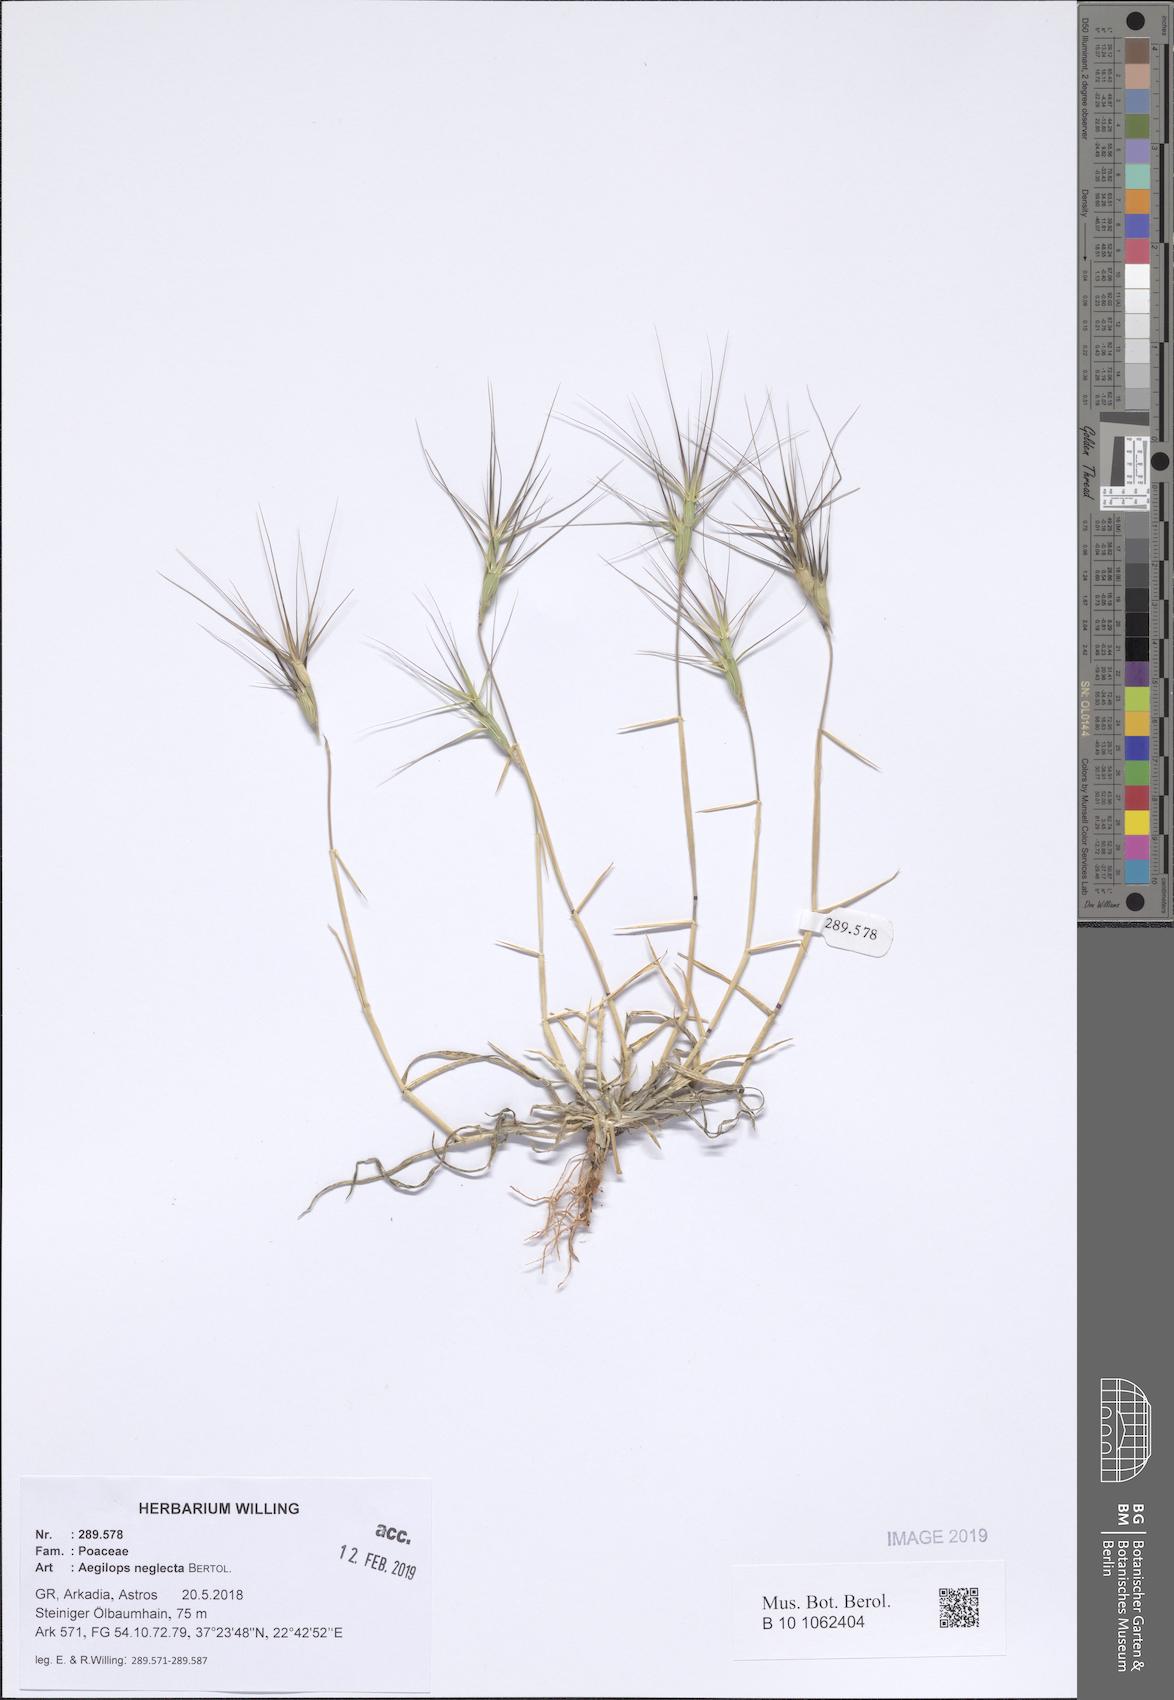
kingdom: Plantae
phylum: Tracheophyta
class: Liliopsida
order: Poales
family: Poaceae
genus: Aegilops
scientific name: Aegilops neglecta
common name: Three-awn goat grass
